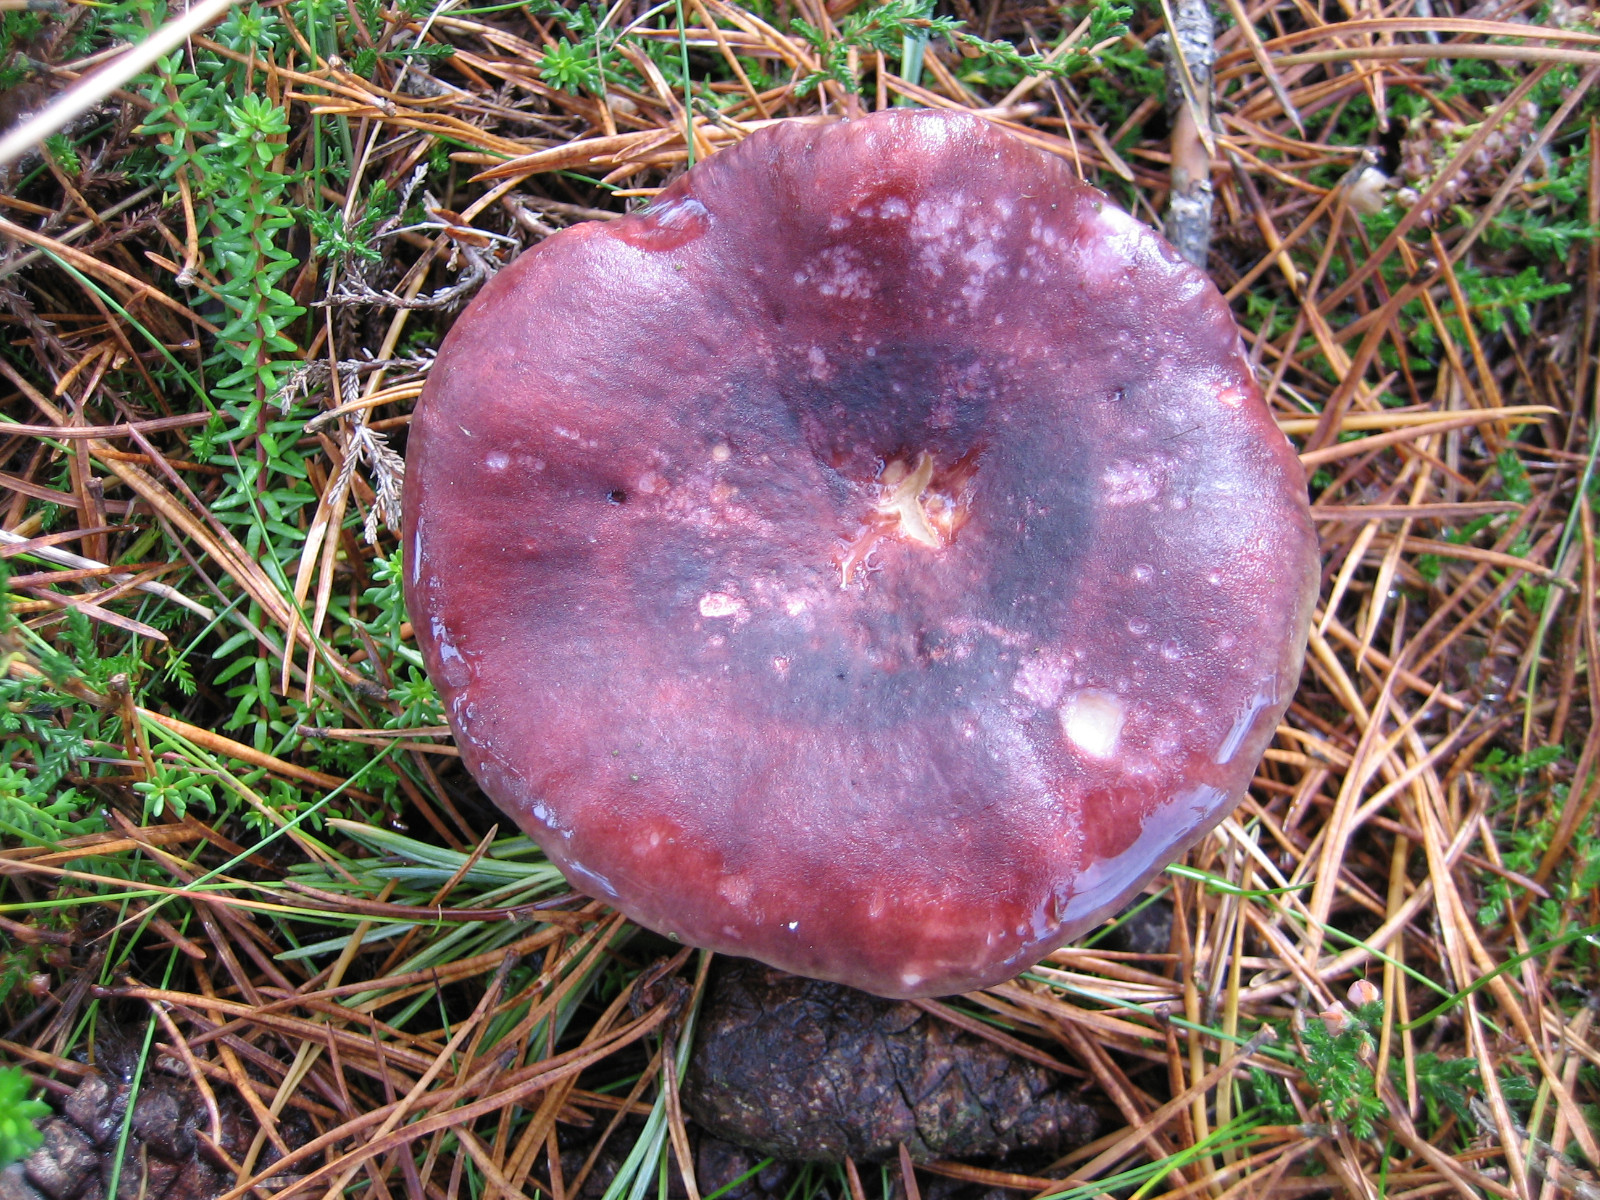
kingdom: Fungi
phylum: Basidiomycota
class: Agaricomycetes
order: Russulales
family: Russulaceae
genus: Russula
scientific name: Russula sardonia
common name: citronbladet skørhat
